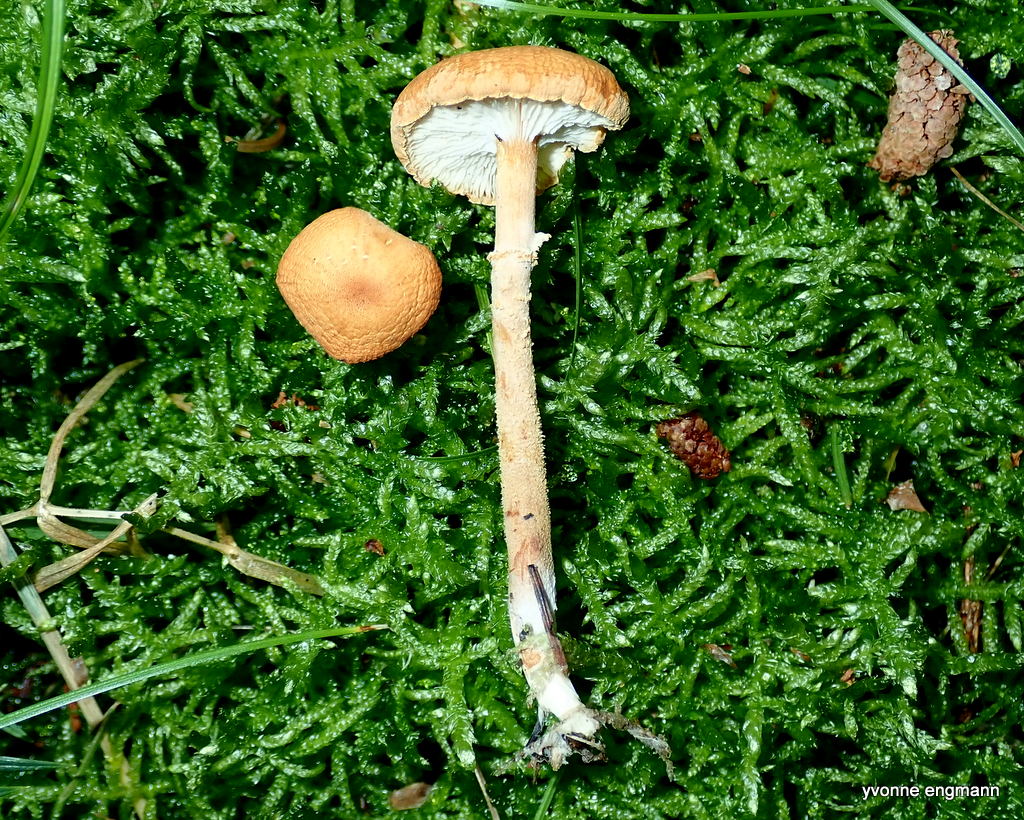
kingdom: Fungi
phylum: Basidiomycota
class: Agaricomycetes
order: Agaricales
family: Tricholomataceae
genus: Cystoderma
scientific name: Cystoderma amianthinum
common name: okkergul grynhat
